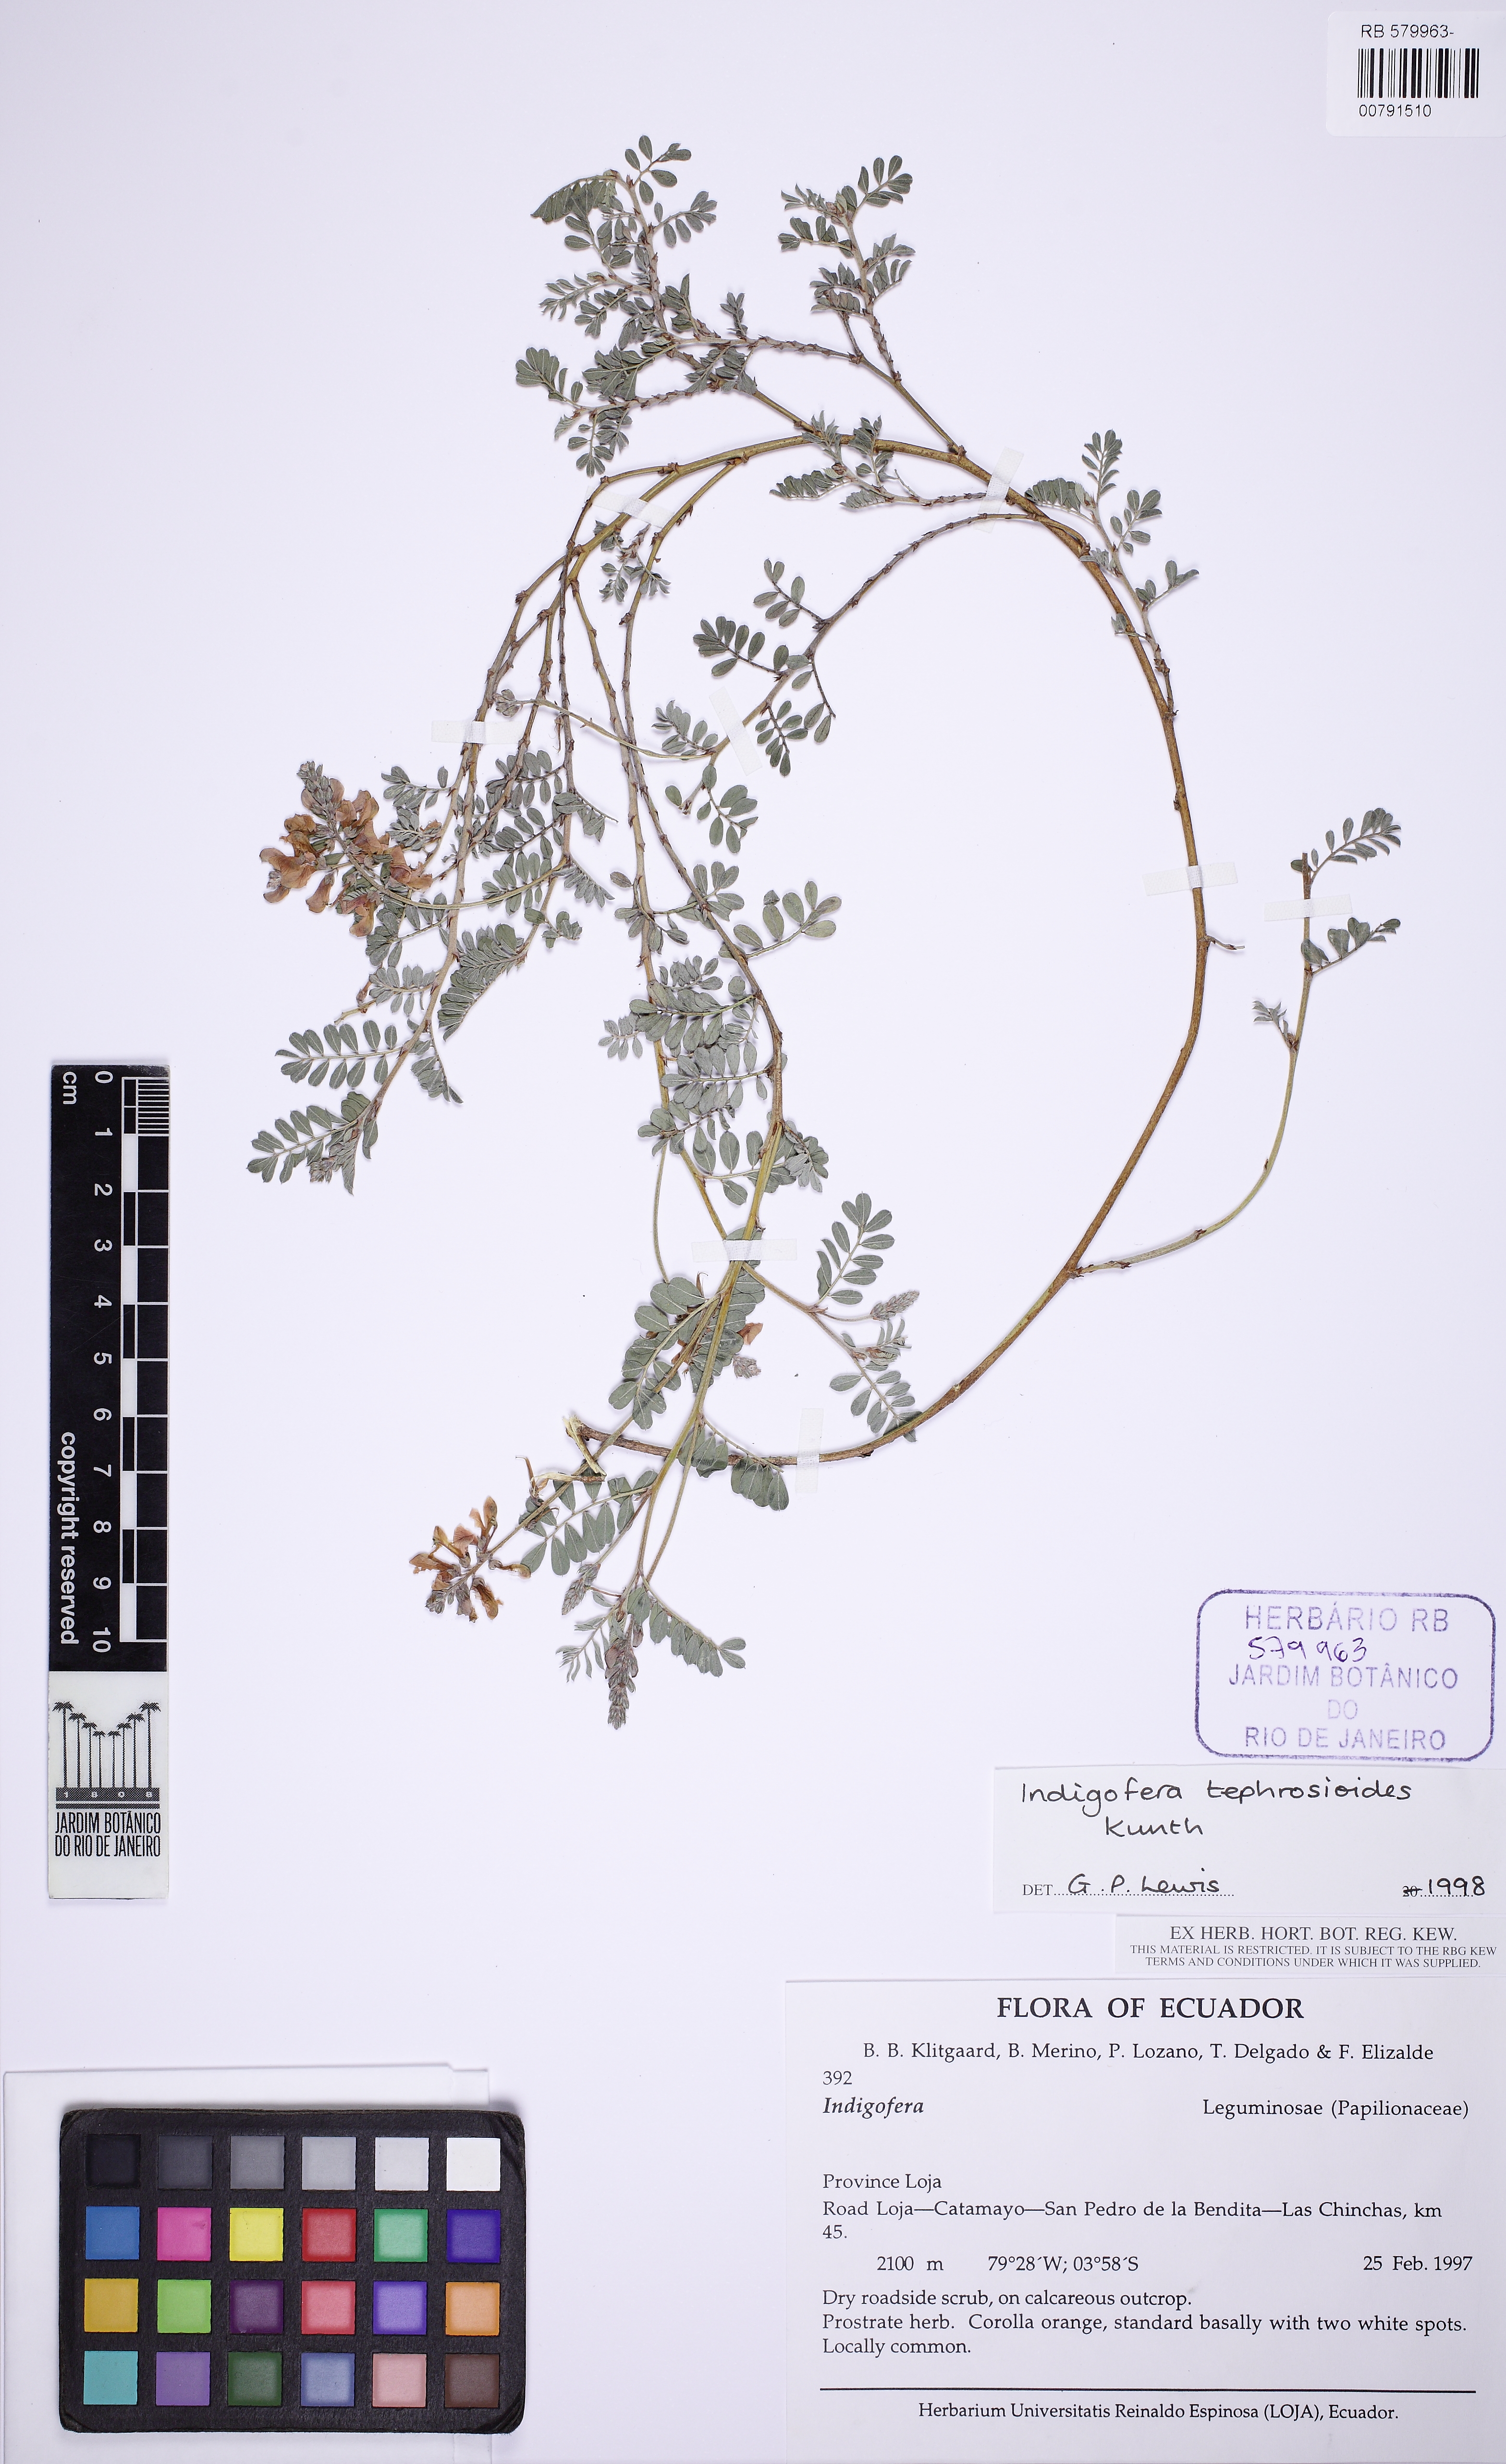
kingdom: Plantae
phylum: Tracheophyta
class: Magnoliopsida
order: Fabales
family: Fabaceae
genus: Indigofera
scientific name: Indigofera tephrosioides
